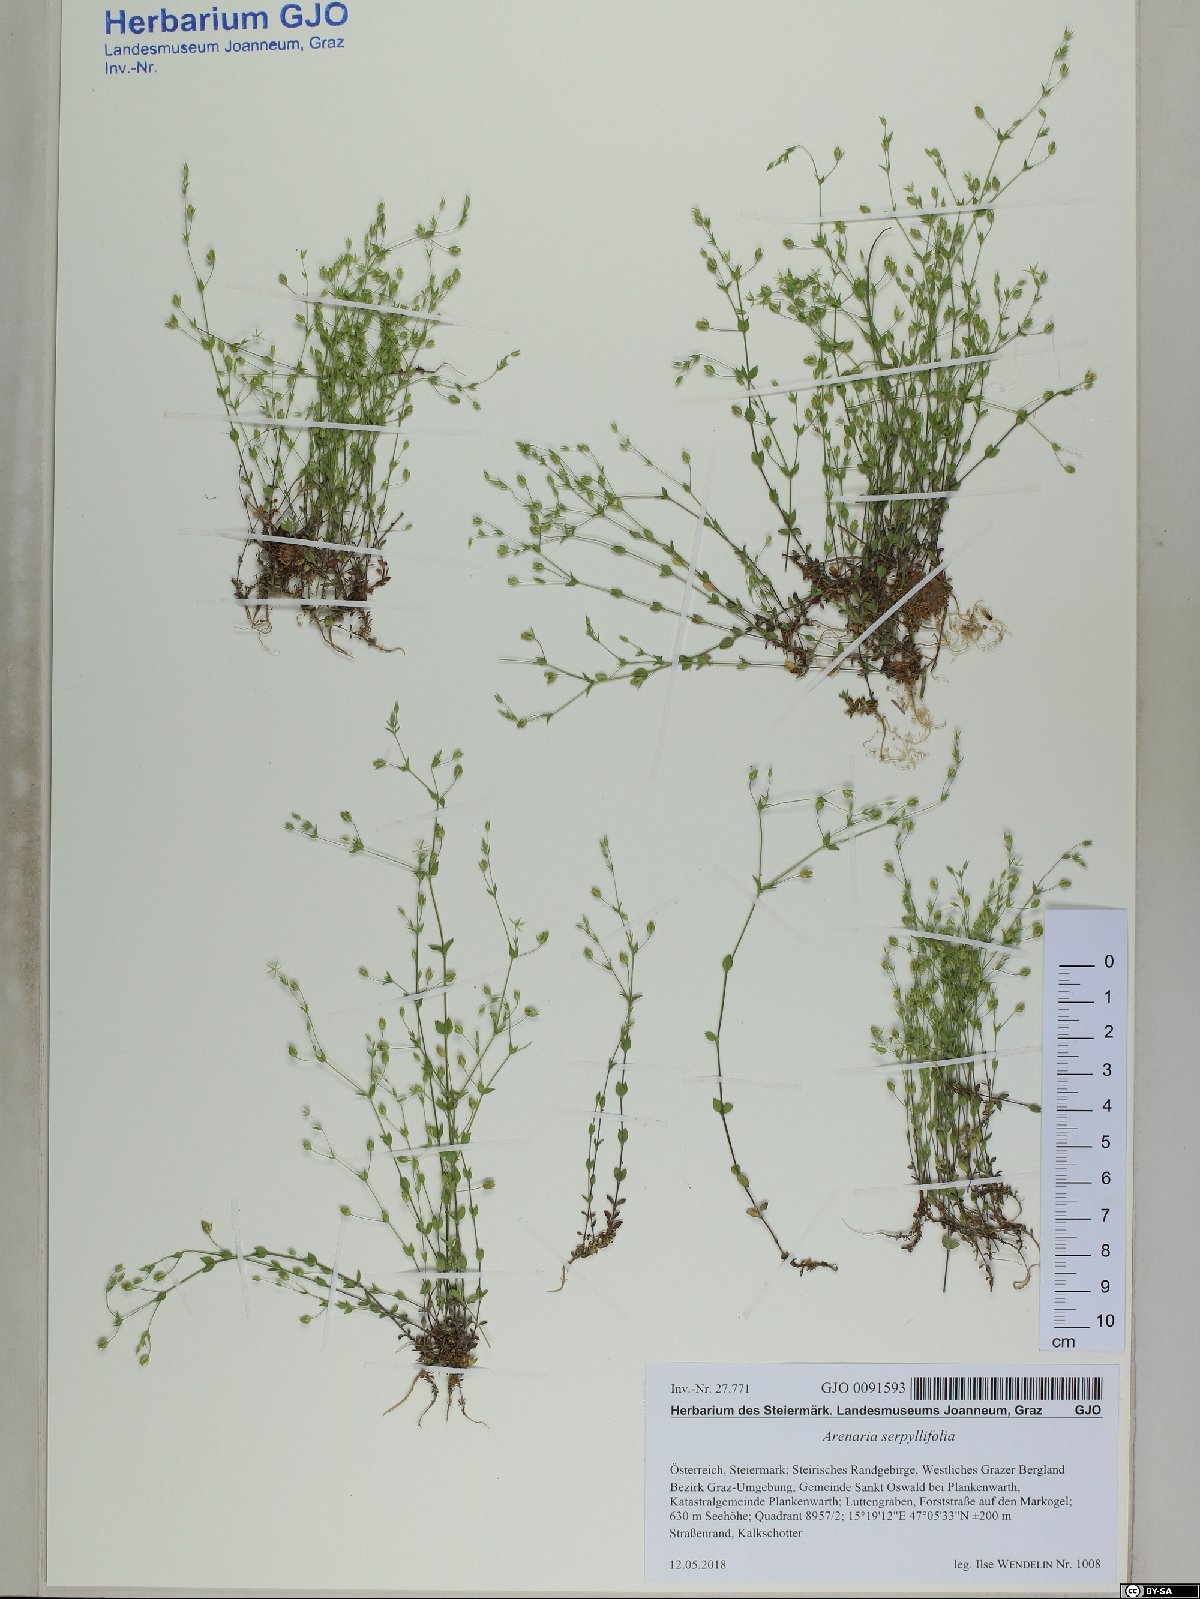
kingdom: Plantae
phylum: Tracheophyta
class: Magnoliopsida
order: Caryophyllales
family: Caryophyllaceae
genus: Arenaria
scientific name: Arenaria serpyllifolia
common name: Thyme-leaved sandwort
